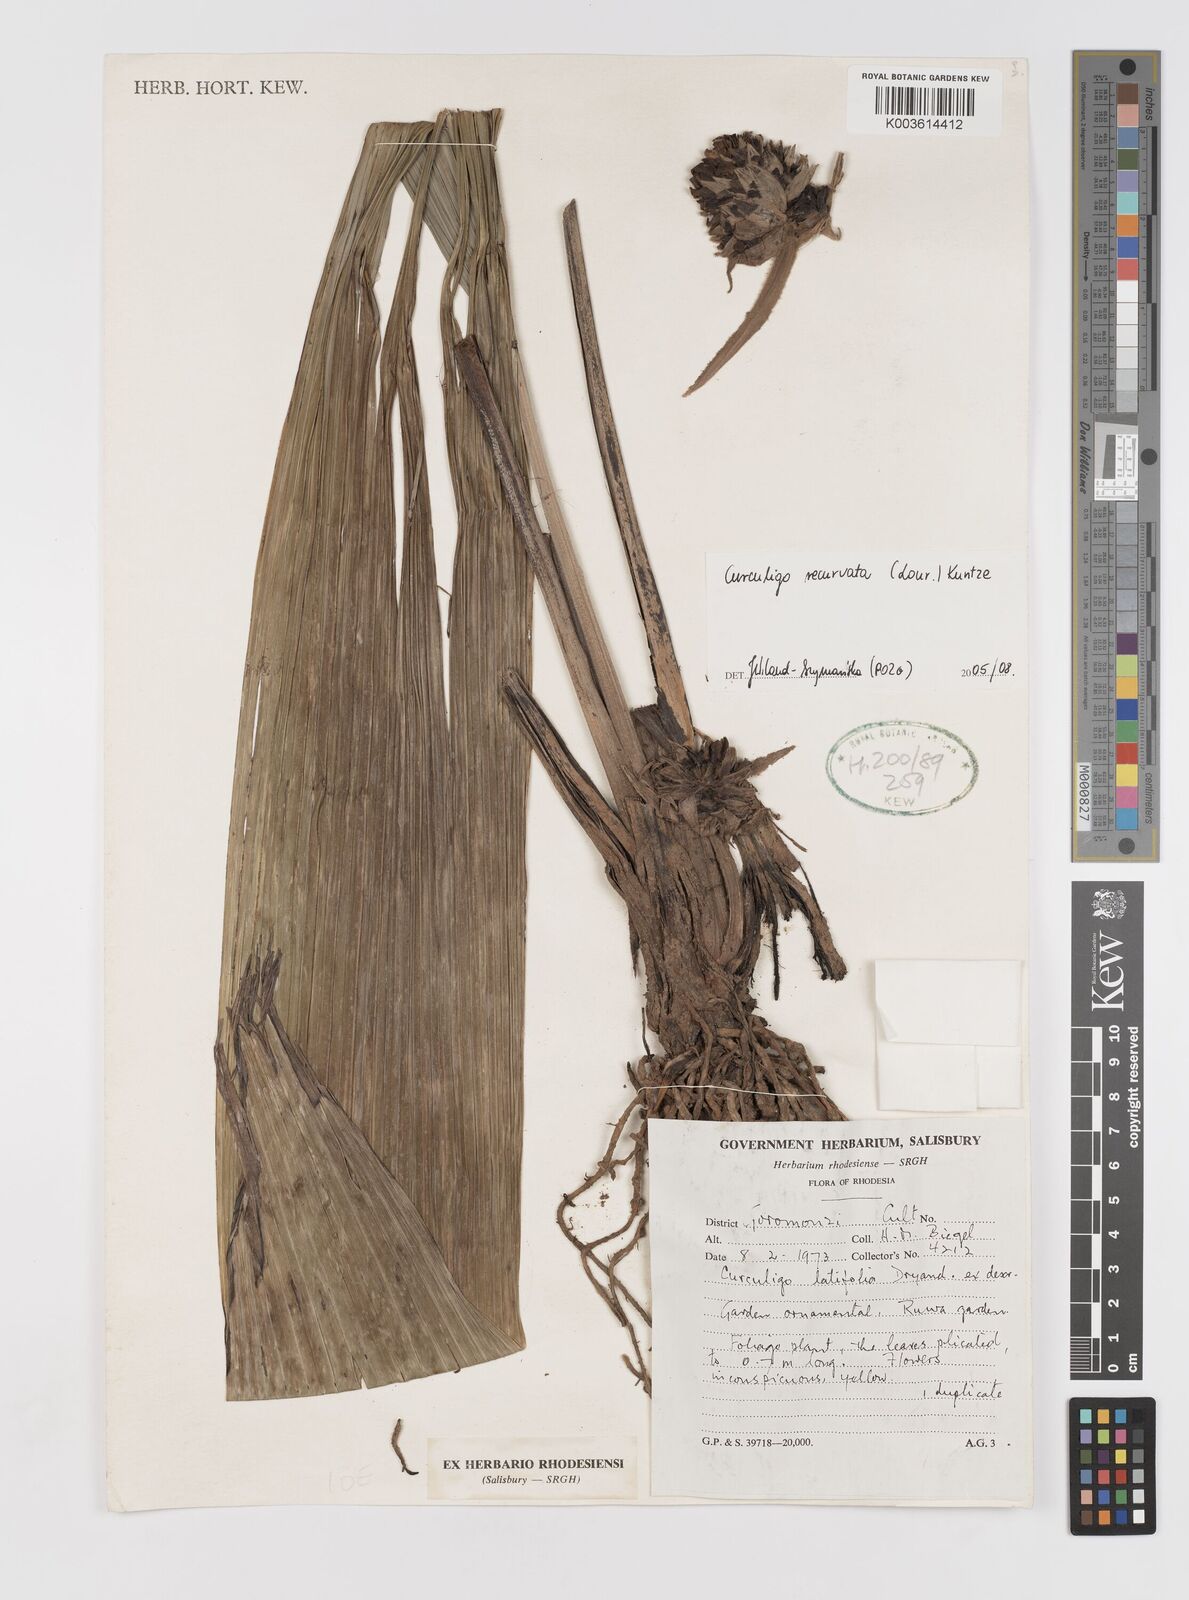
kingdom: Plantae
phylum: Tracheophyta
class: Liliopsida
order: Asparagales
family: Hypoxidaceae
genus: Curculigo
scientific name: Curculigo capitulata
